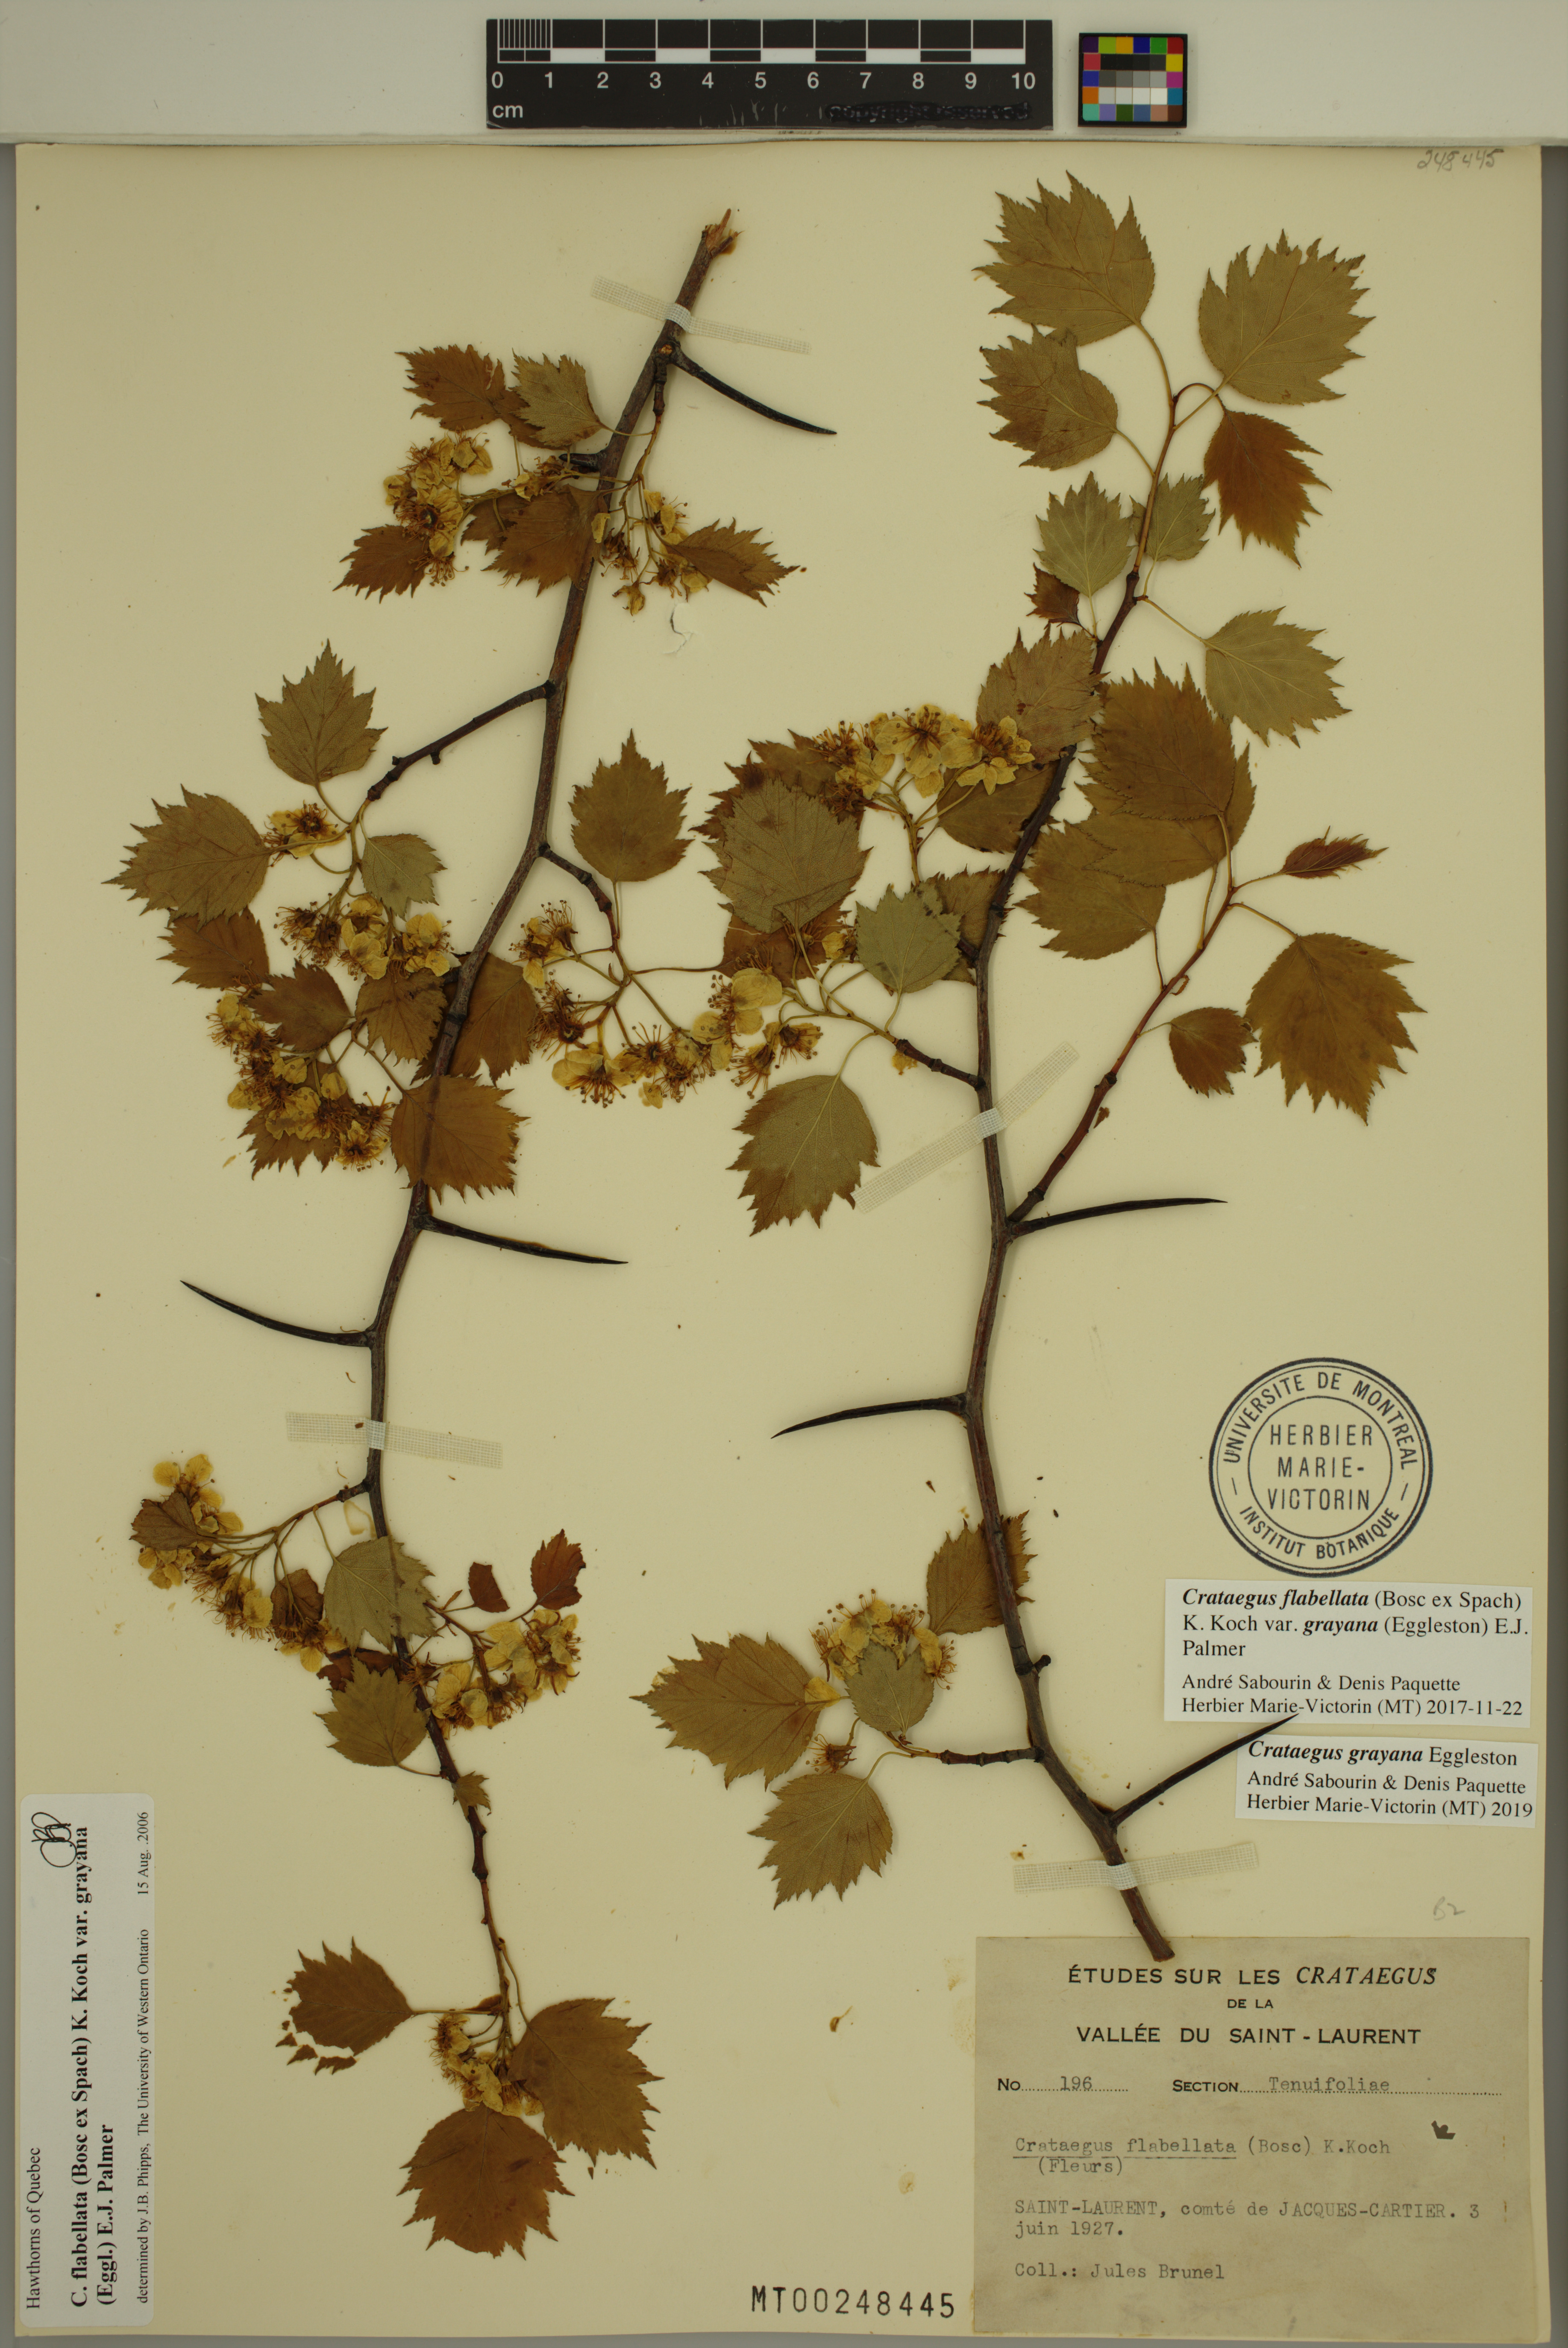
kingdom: Plantae
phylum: Tracheophyta
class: Magnoliopsida
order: Rosales
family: Rosaceae
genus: Crataegus
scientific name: Crataegus schuettei
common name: Schuette's hawthorn
